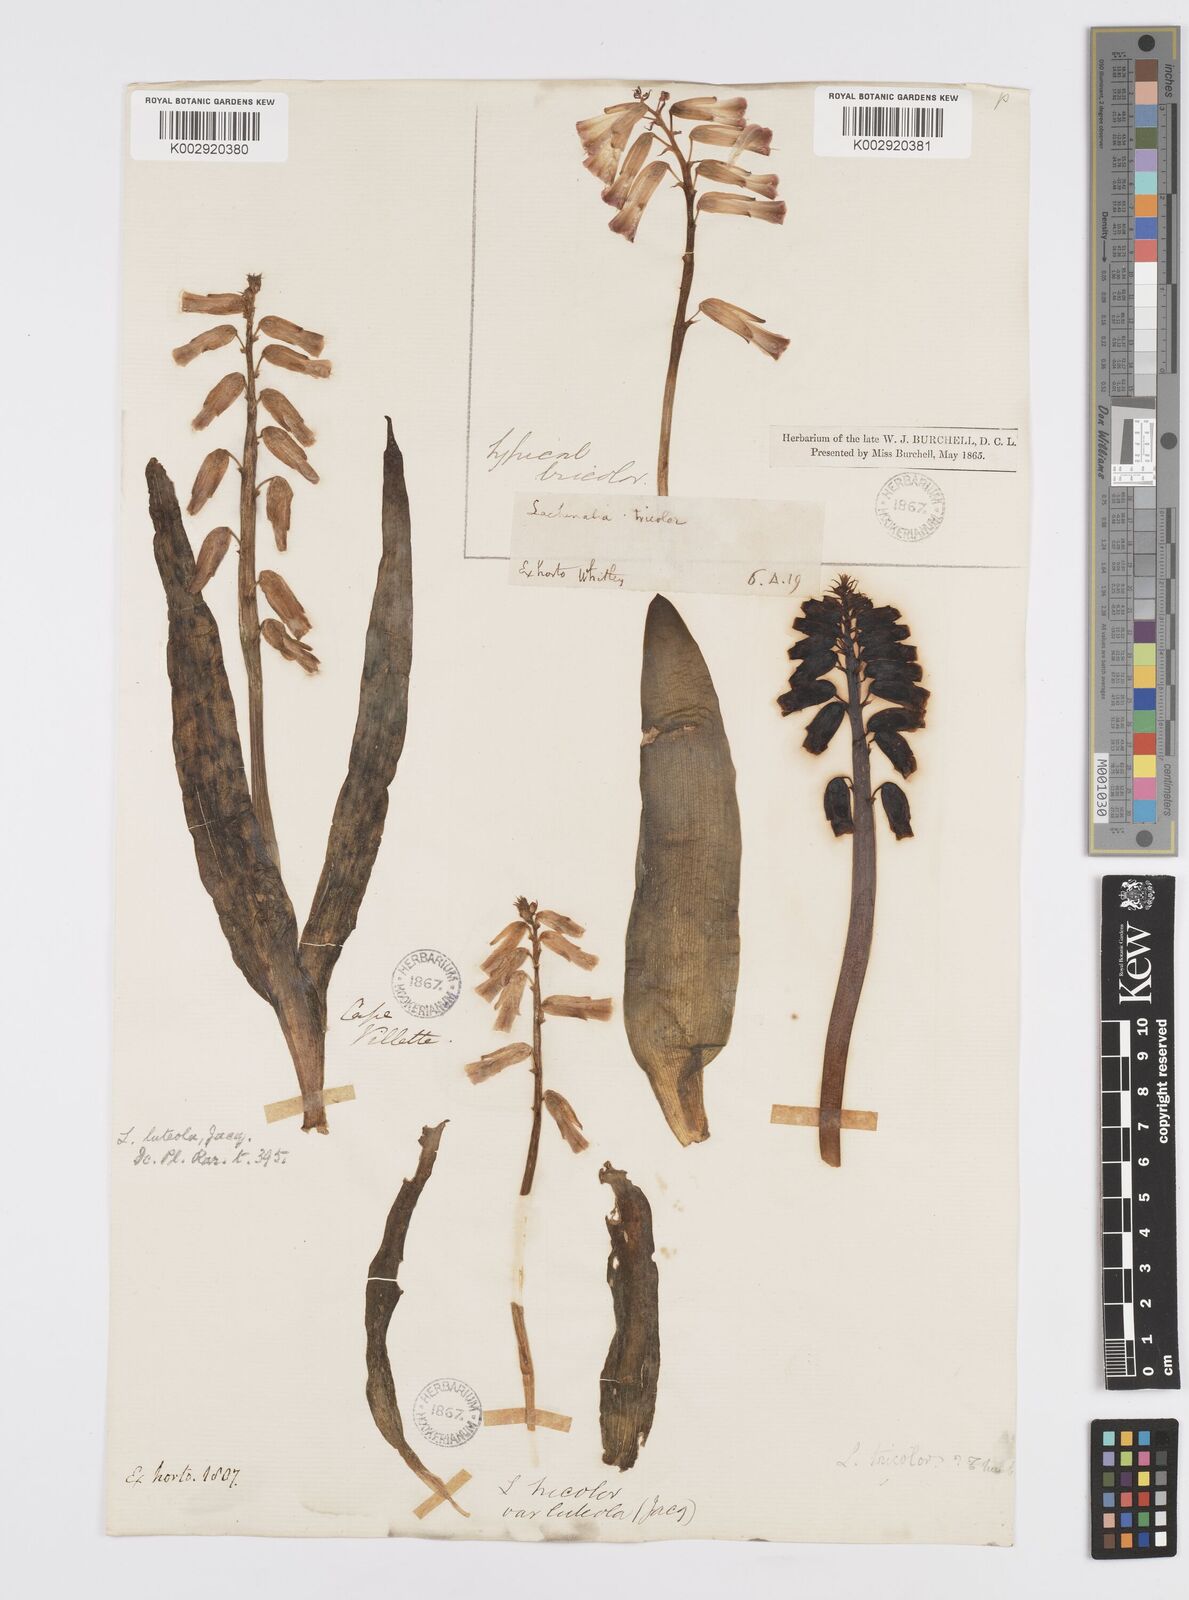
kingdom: Plantae
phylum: Tracheophyta
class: Liliopsida
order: Asparagales
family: Asparagaceae
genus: Lachenalia
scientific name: Lachenalia
